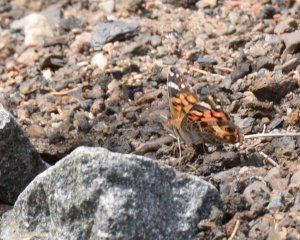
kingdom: Animalia
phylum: Arthropoda
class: Insecta
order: Lepidoptera
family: Nymphalidae
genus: Vanessa
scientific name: Vanessa virginiensis
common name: American Lady
